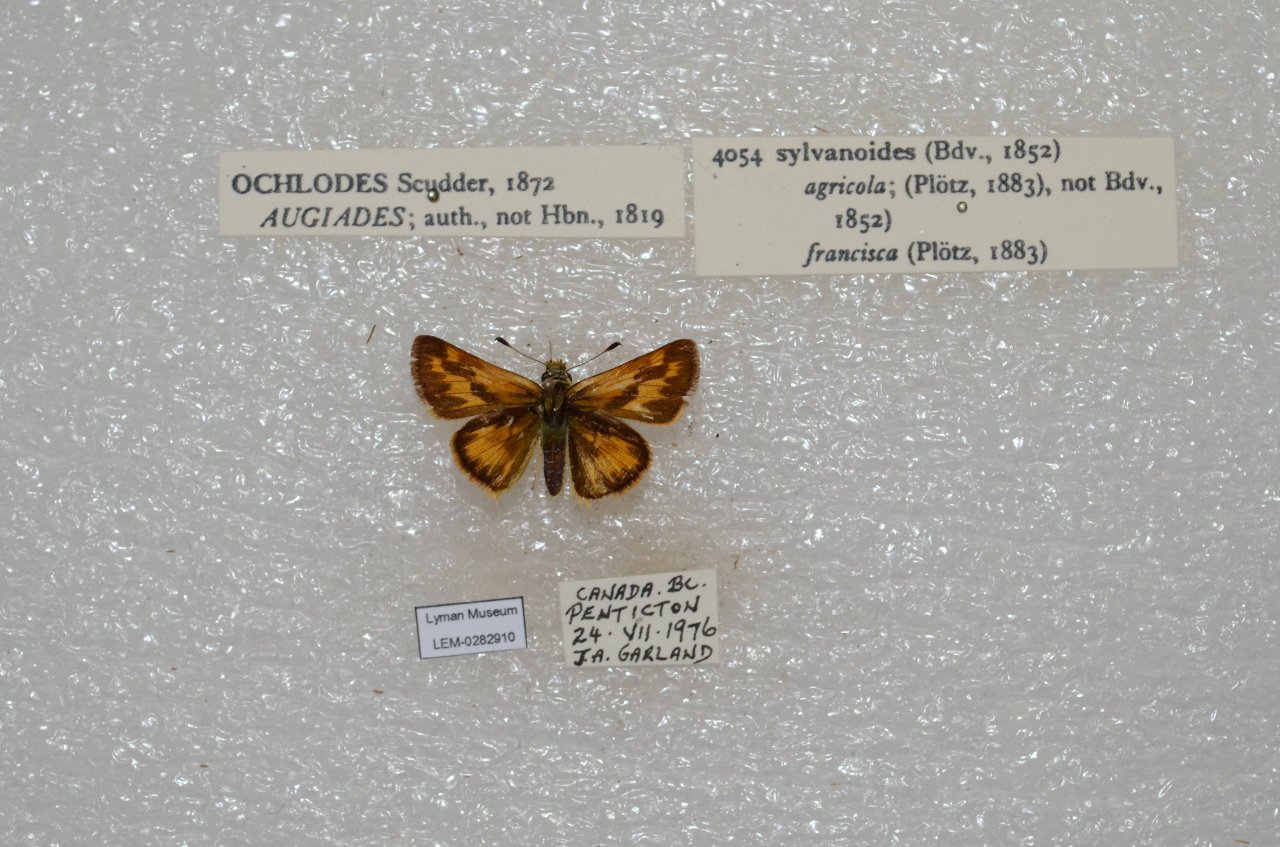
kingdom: Animalia
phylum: Arthropoda
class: Insecta
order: Lepidoptera
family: Hesperiidae
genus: Ochlodes
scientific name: Ochlodes sylvanoides
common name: Woodland Skipper
